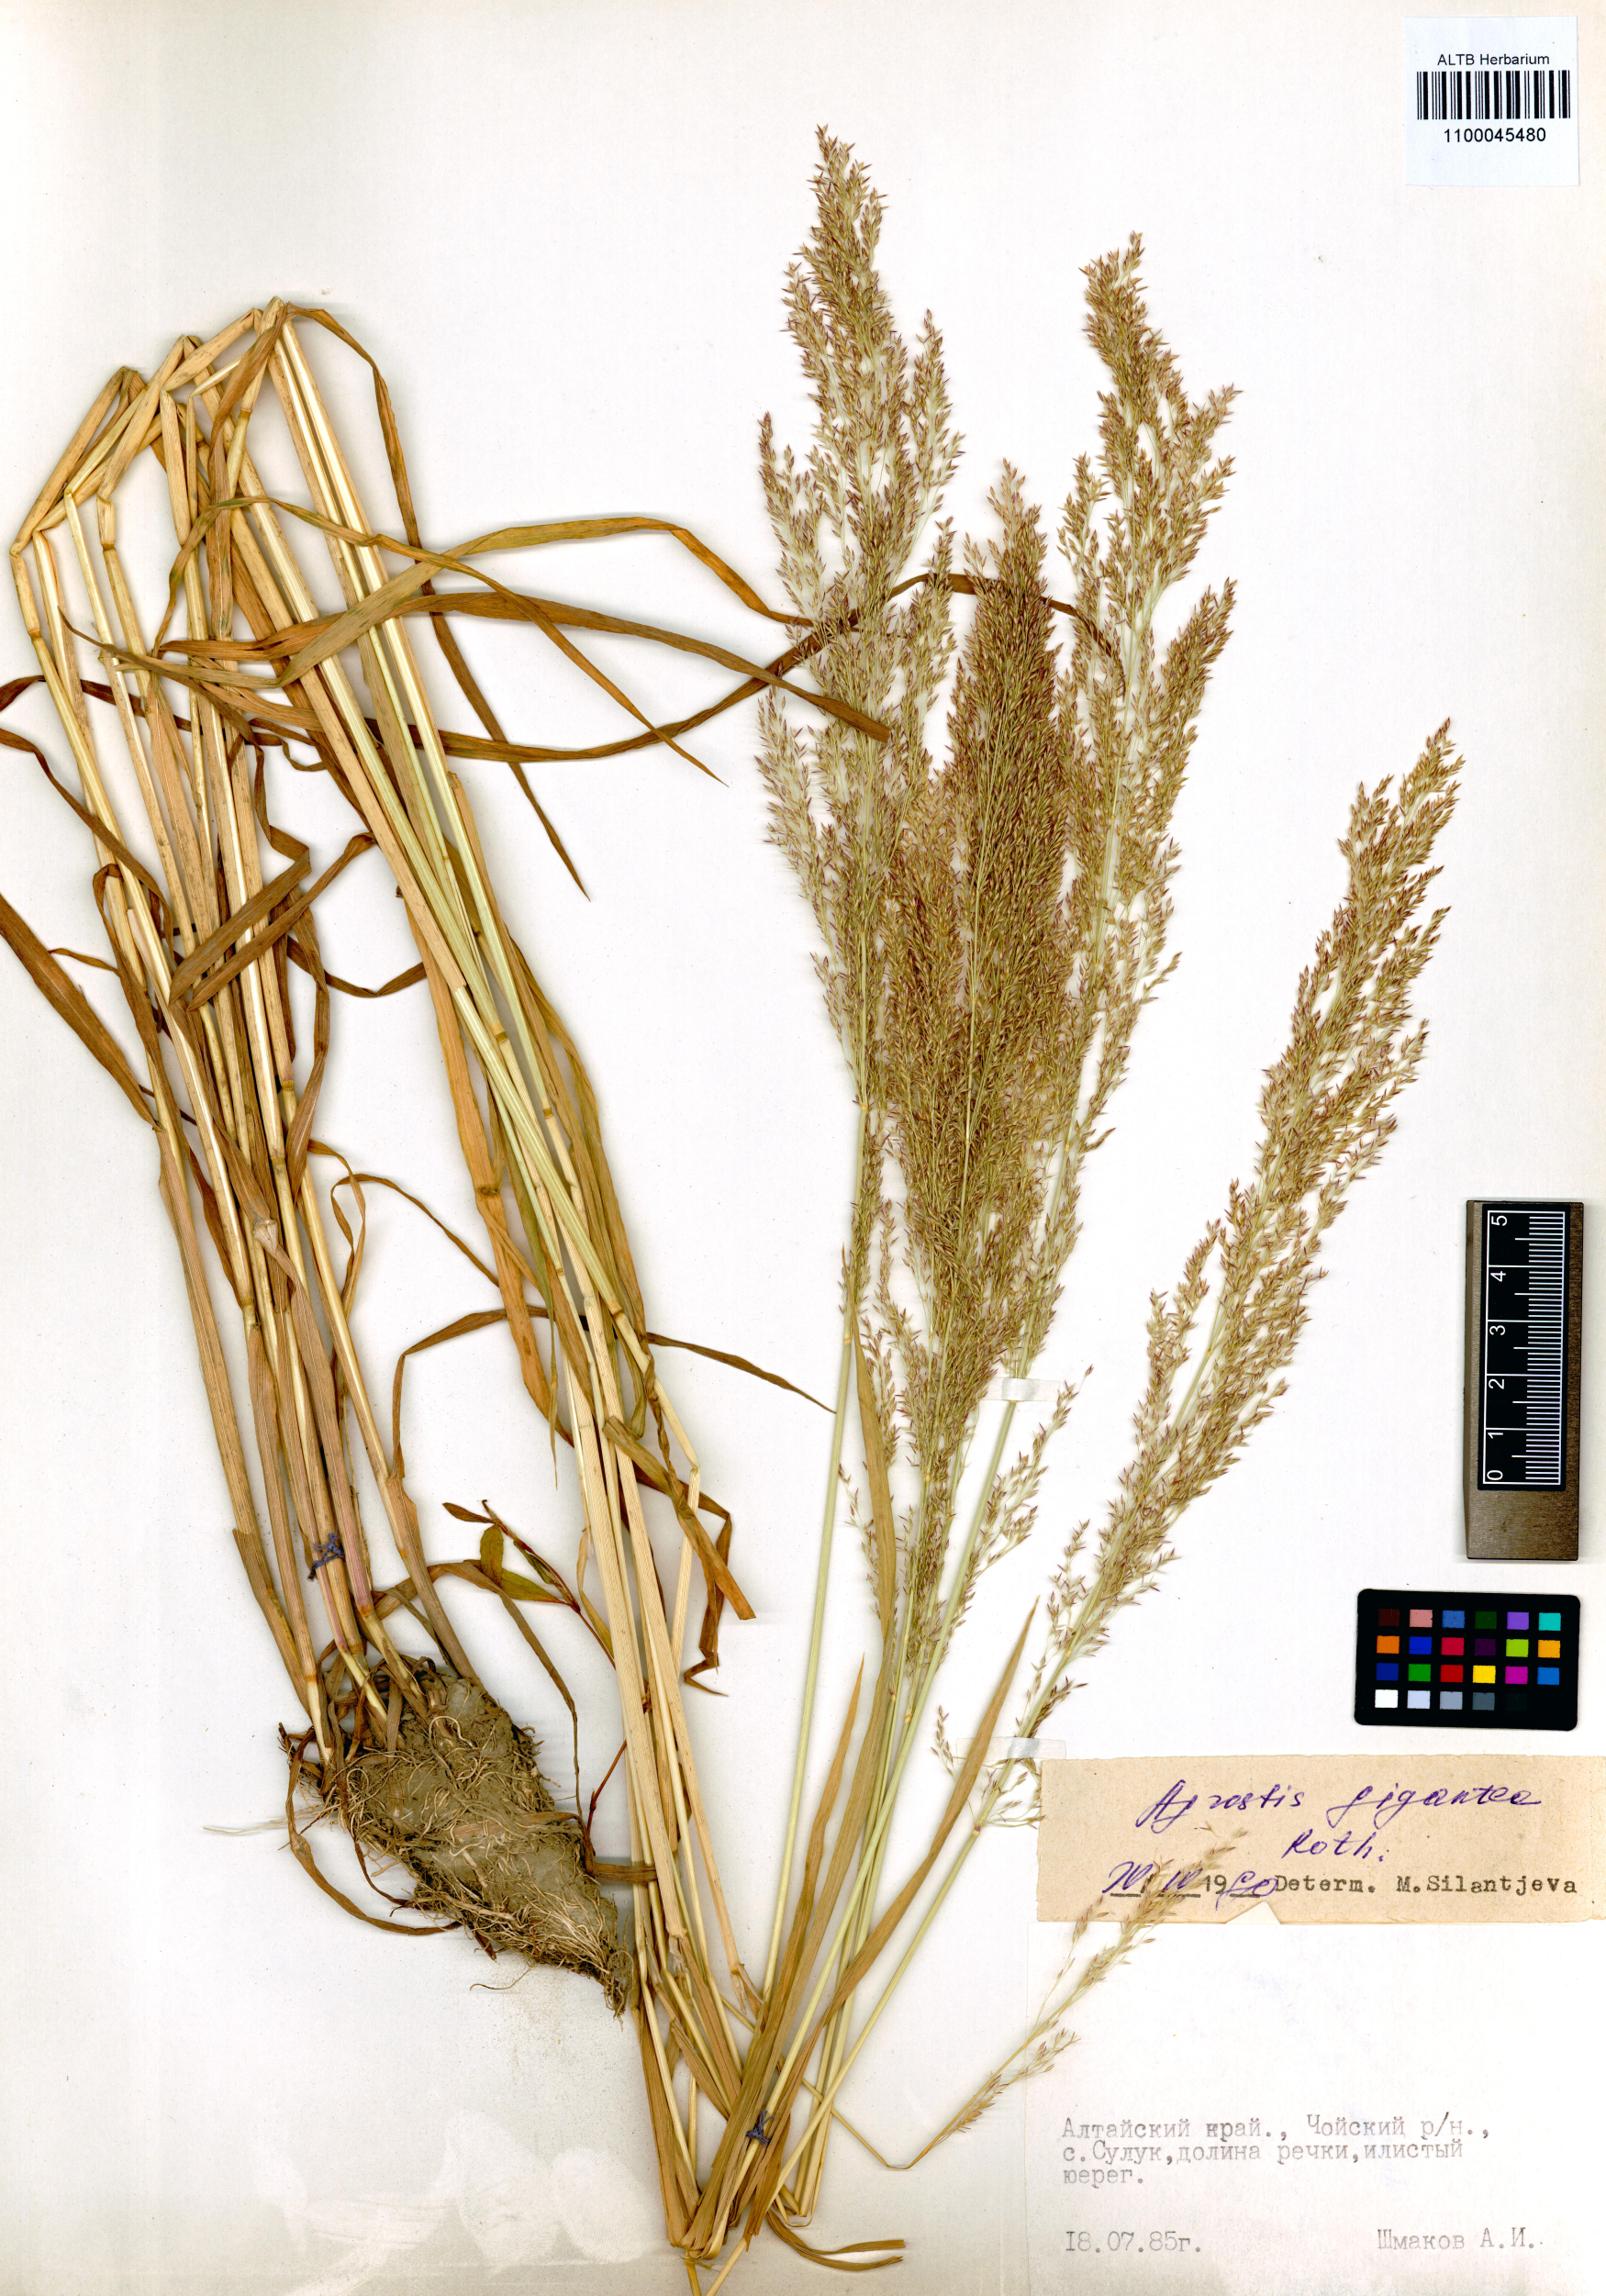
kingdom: Plantae
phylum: Tracheophyta
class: Liliopsida
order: Poales
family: Poaceae
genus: Agrostis
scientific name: Agrostis gigantea
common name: Black bent
